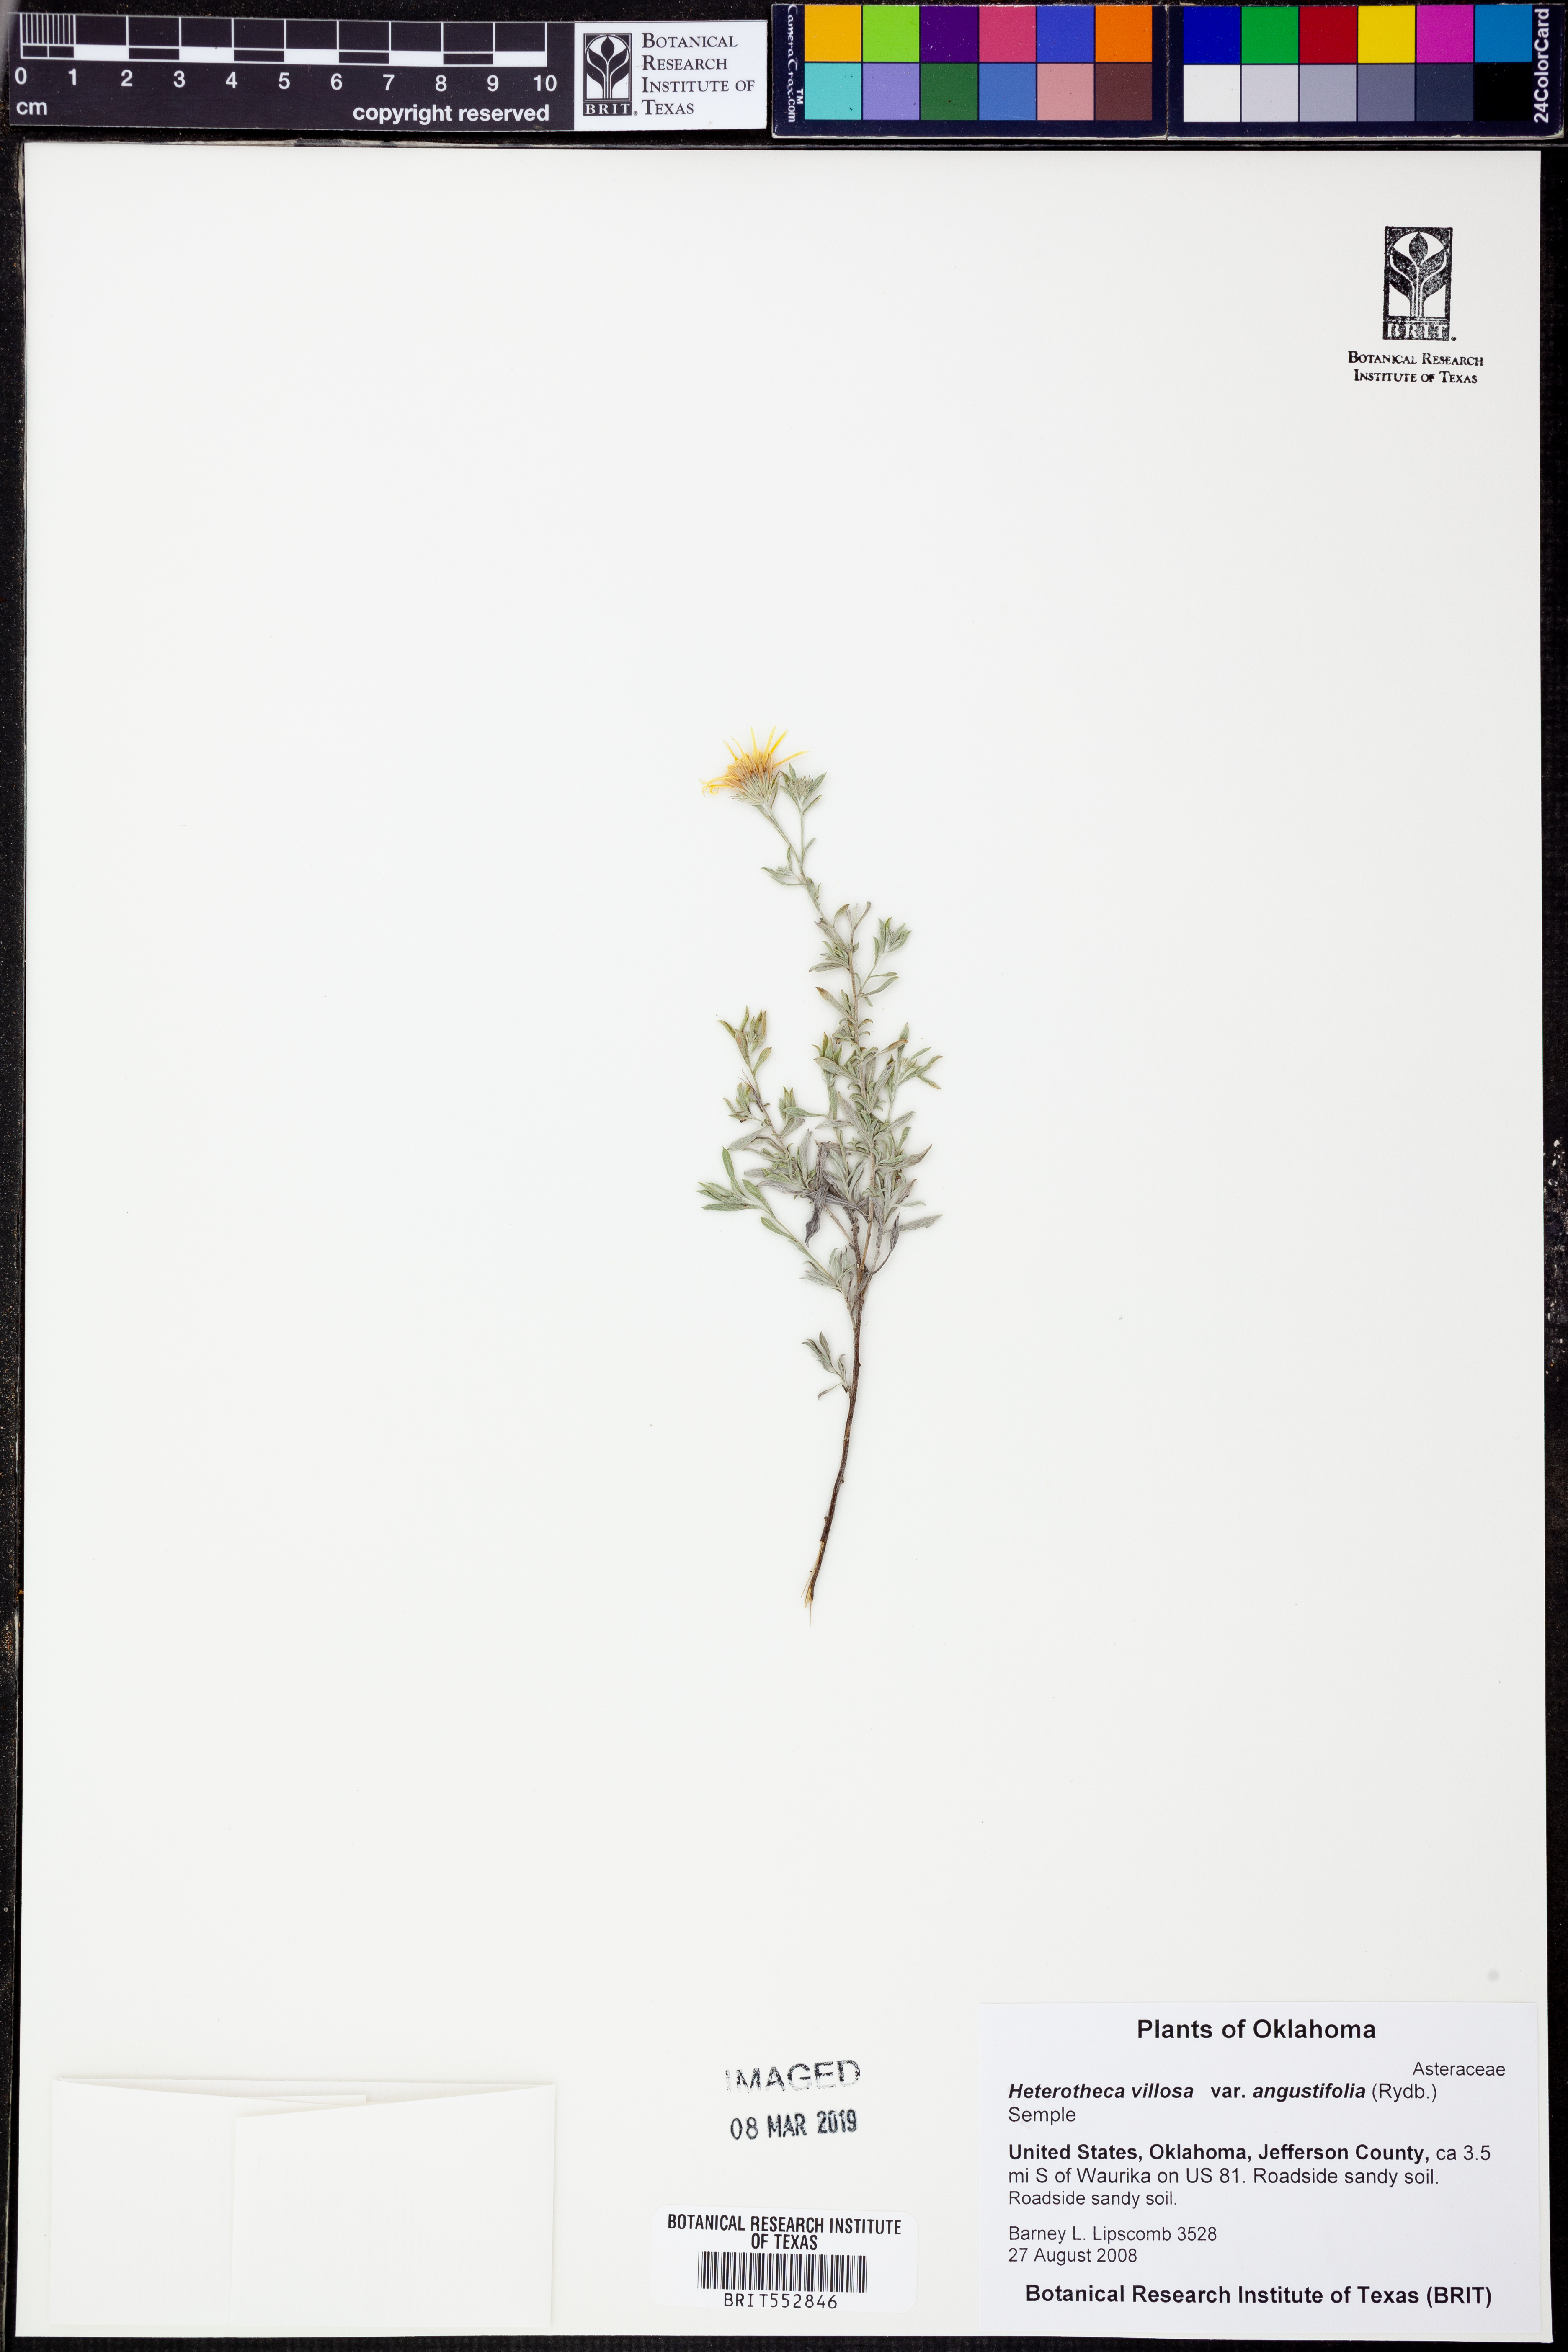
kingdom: Plantae
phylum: Tracheophyta
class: Magnoliopsida
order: Asterales
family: Asteraceae
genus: Heterotheca
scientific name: Heterotheca angustifolia
